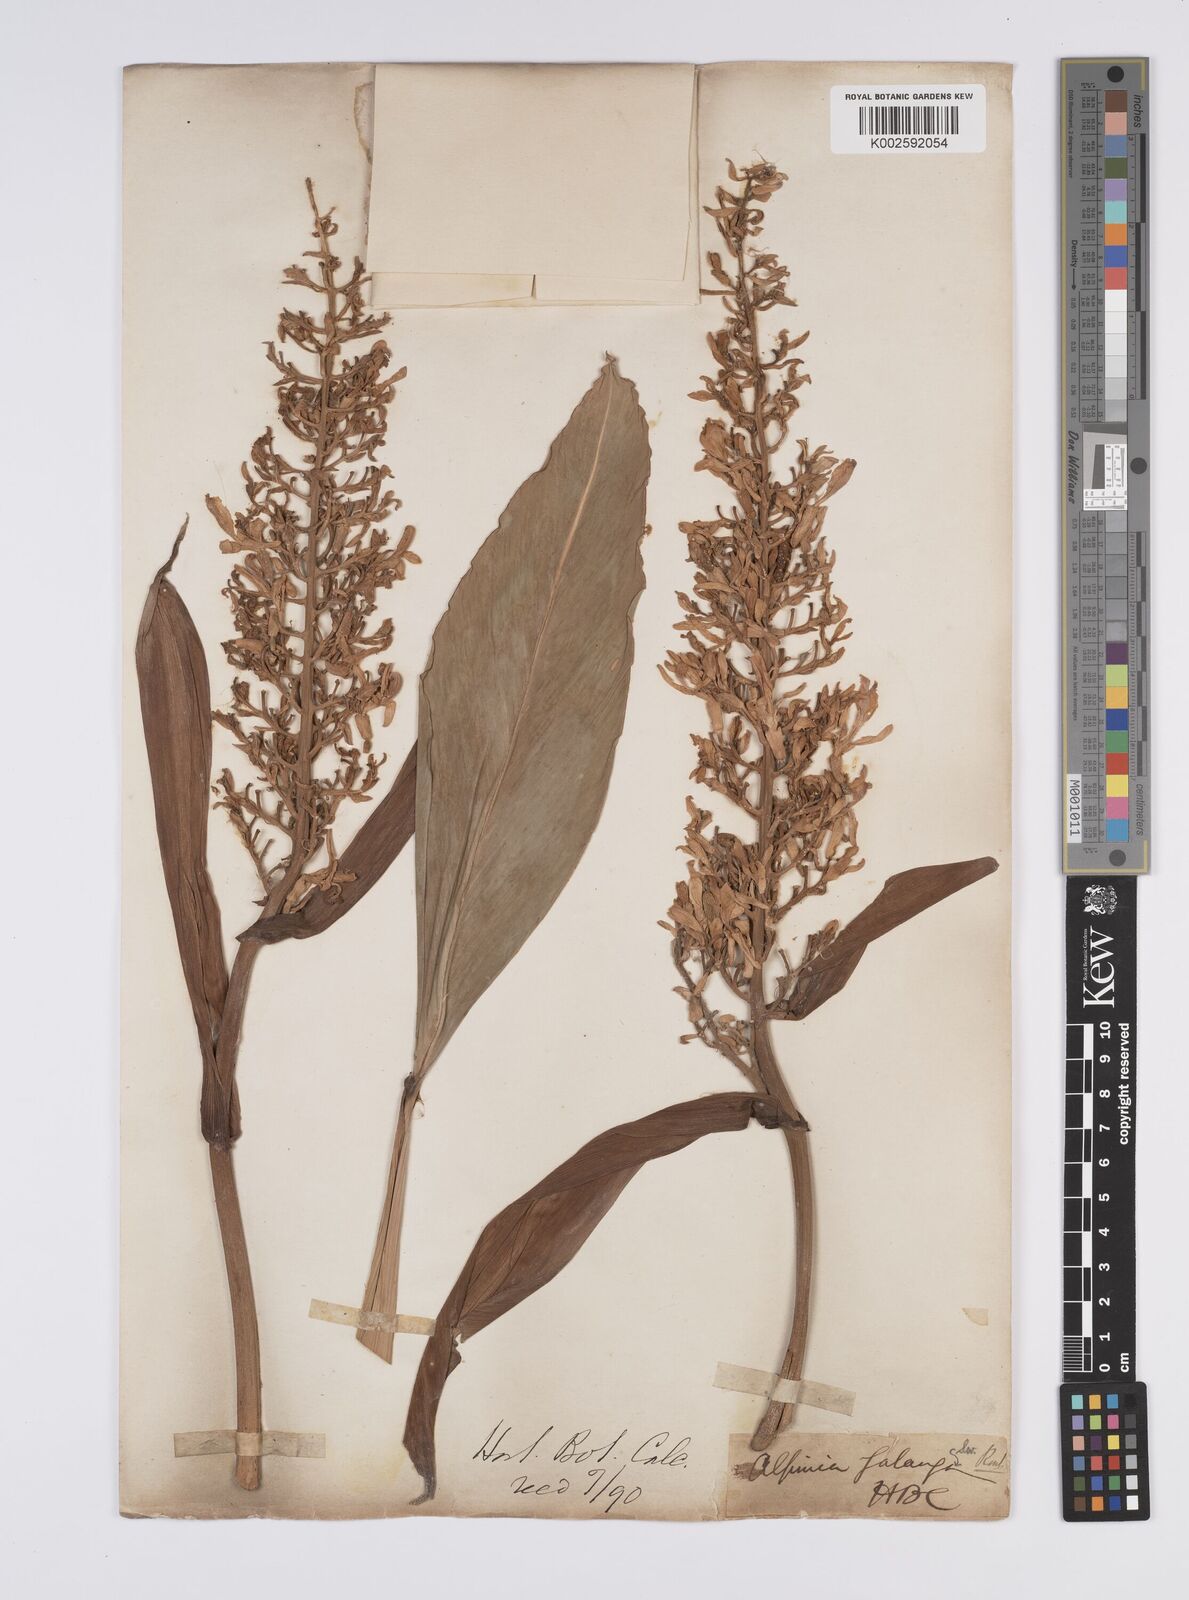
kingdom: Plantae
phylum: Tracheophyta
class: Liliopsida
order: Zingiberales
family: Zingiberaceae
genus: Alpinia
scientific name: Alpinia
